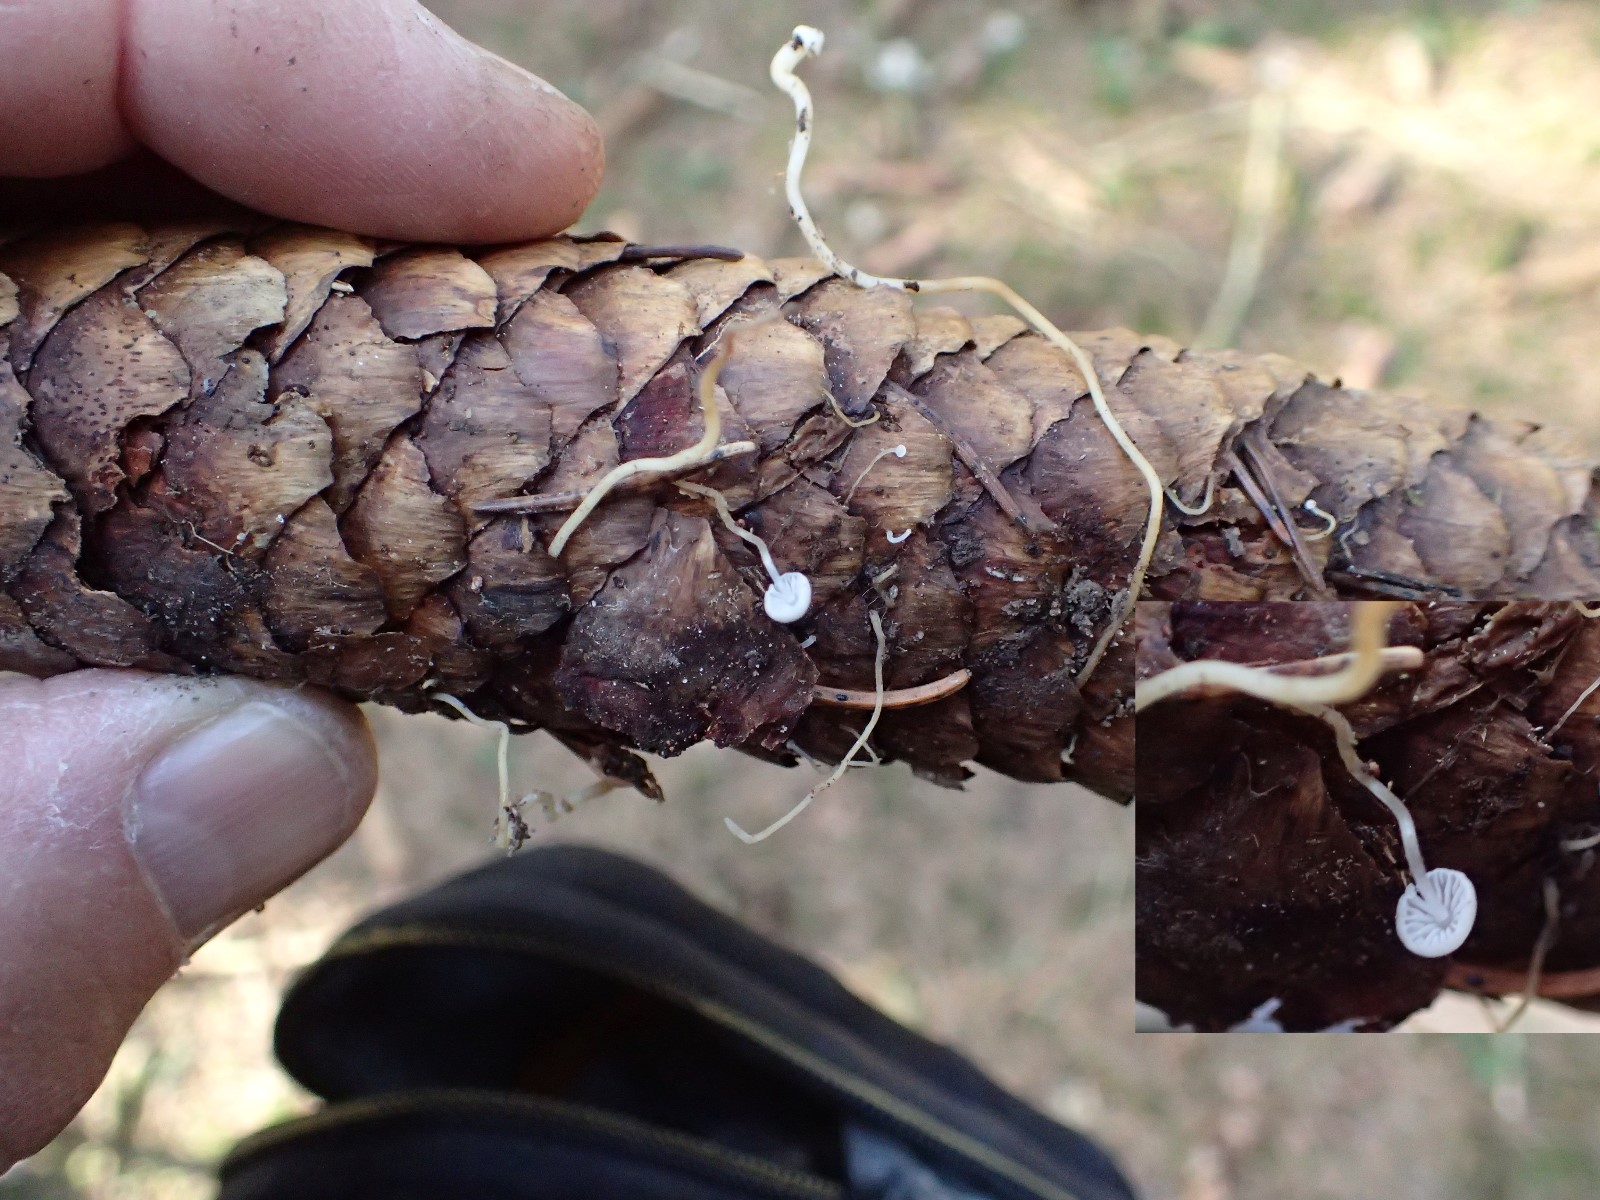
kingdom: Fungi
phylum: Basidiomycota
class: Agaricomycetes
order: Agaricales
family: Omphalotaceae
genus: Paragymnopus
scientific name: Paragymnopus perforans
